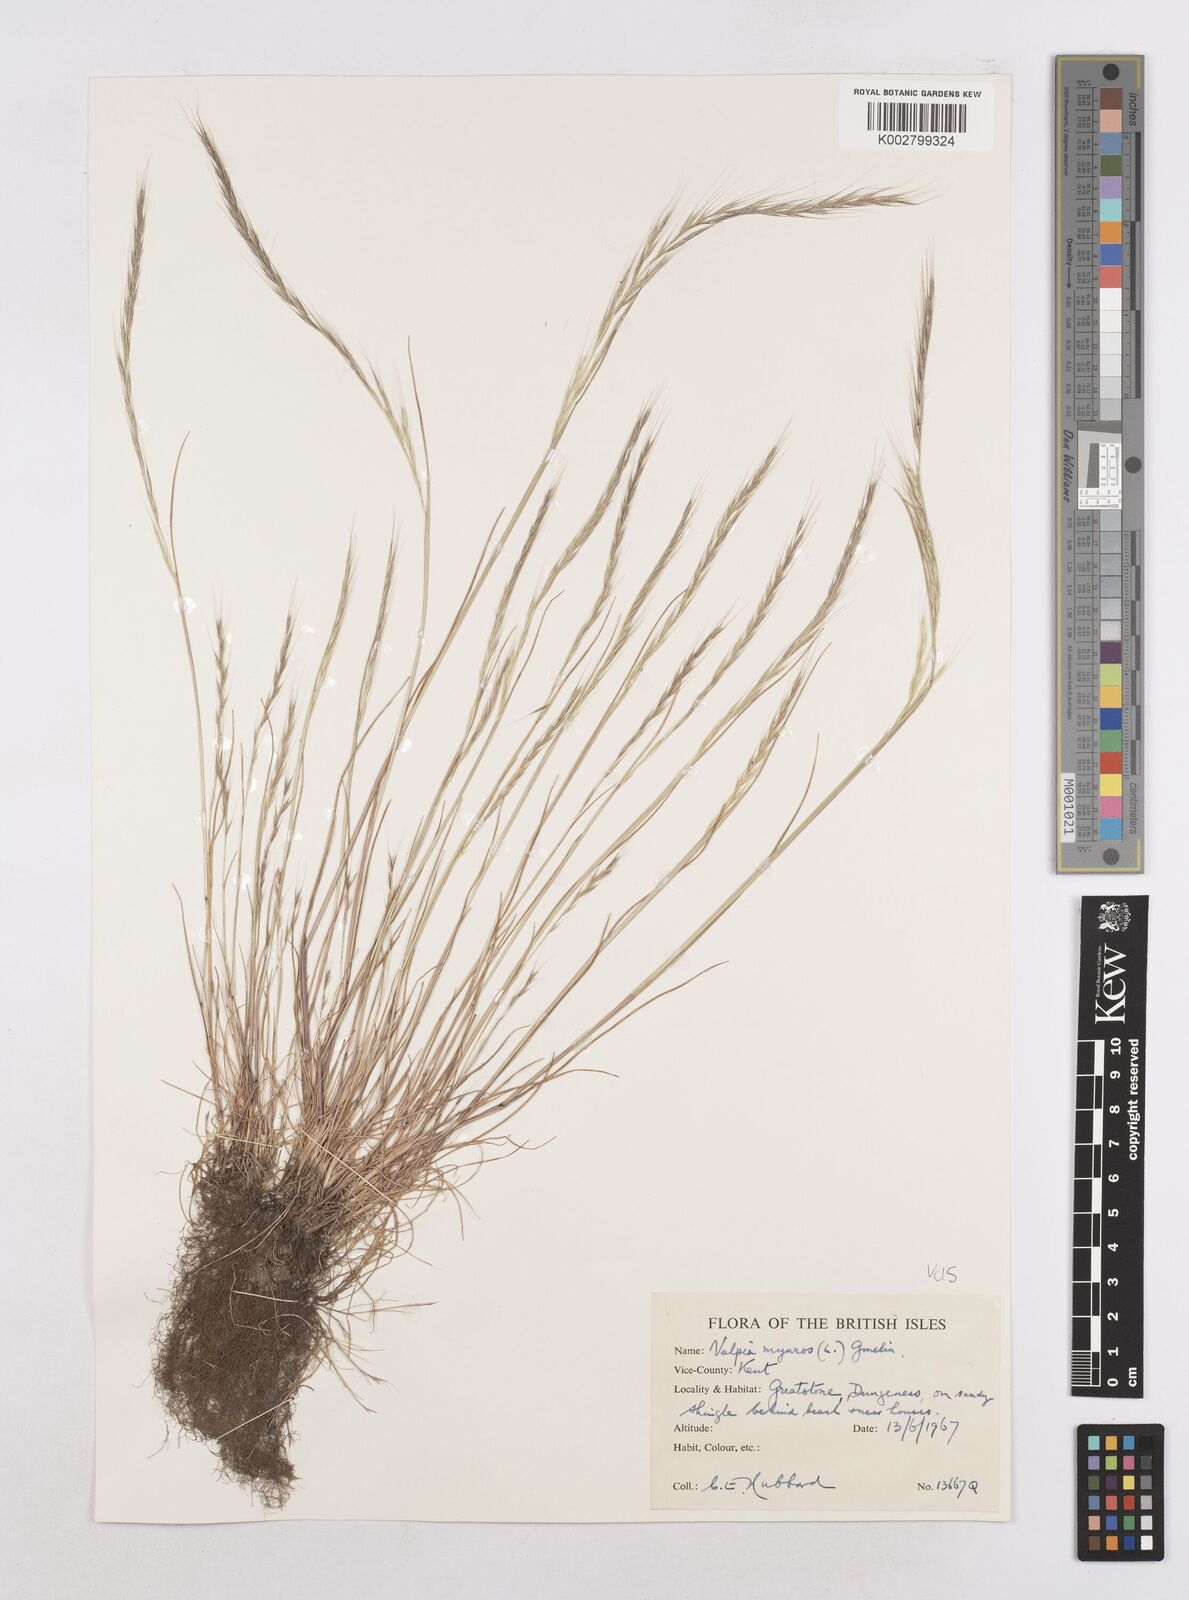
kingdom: Plantae
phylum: Tracheophyta
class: Liliopsida
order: Poales
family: Poaceae
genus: Festuca
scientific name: Festuca myuros
